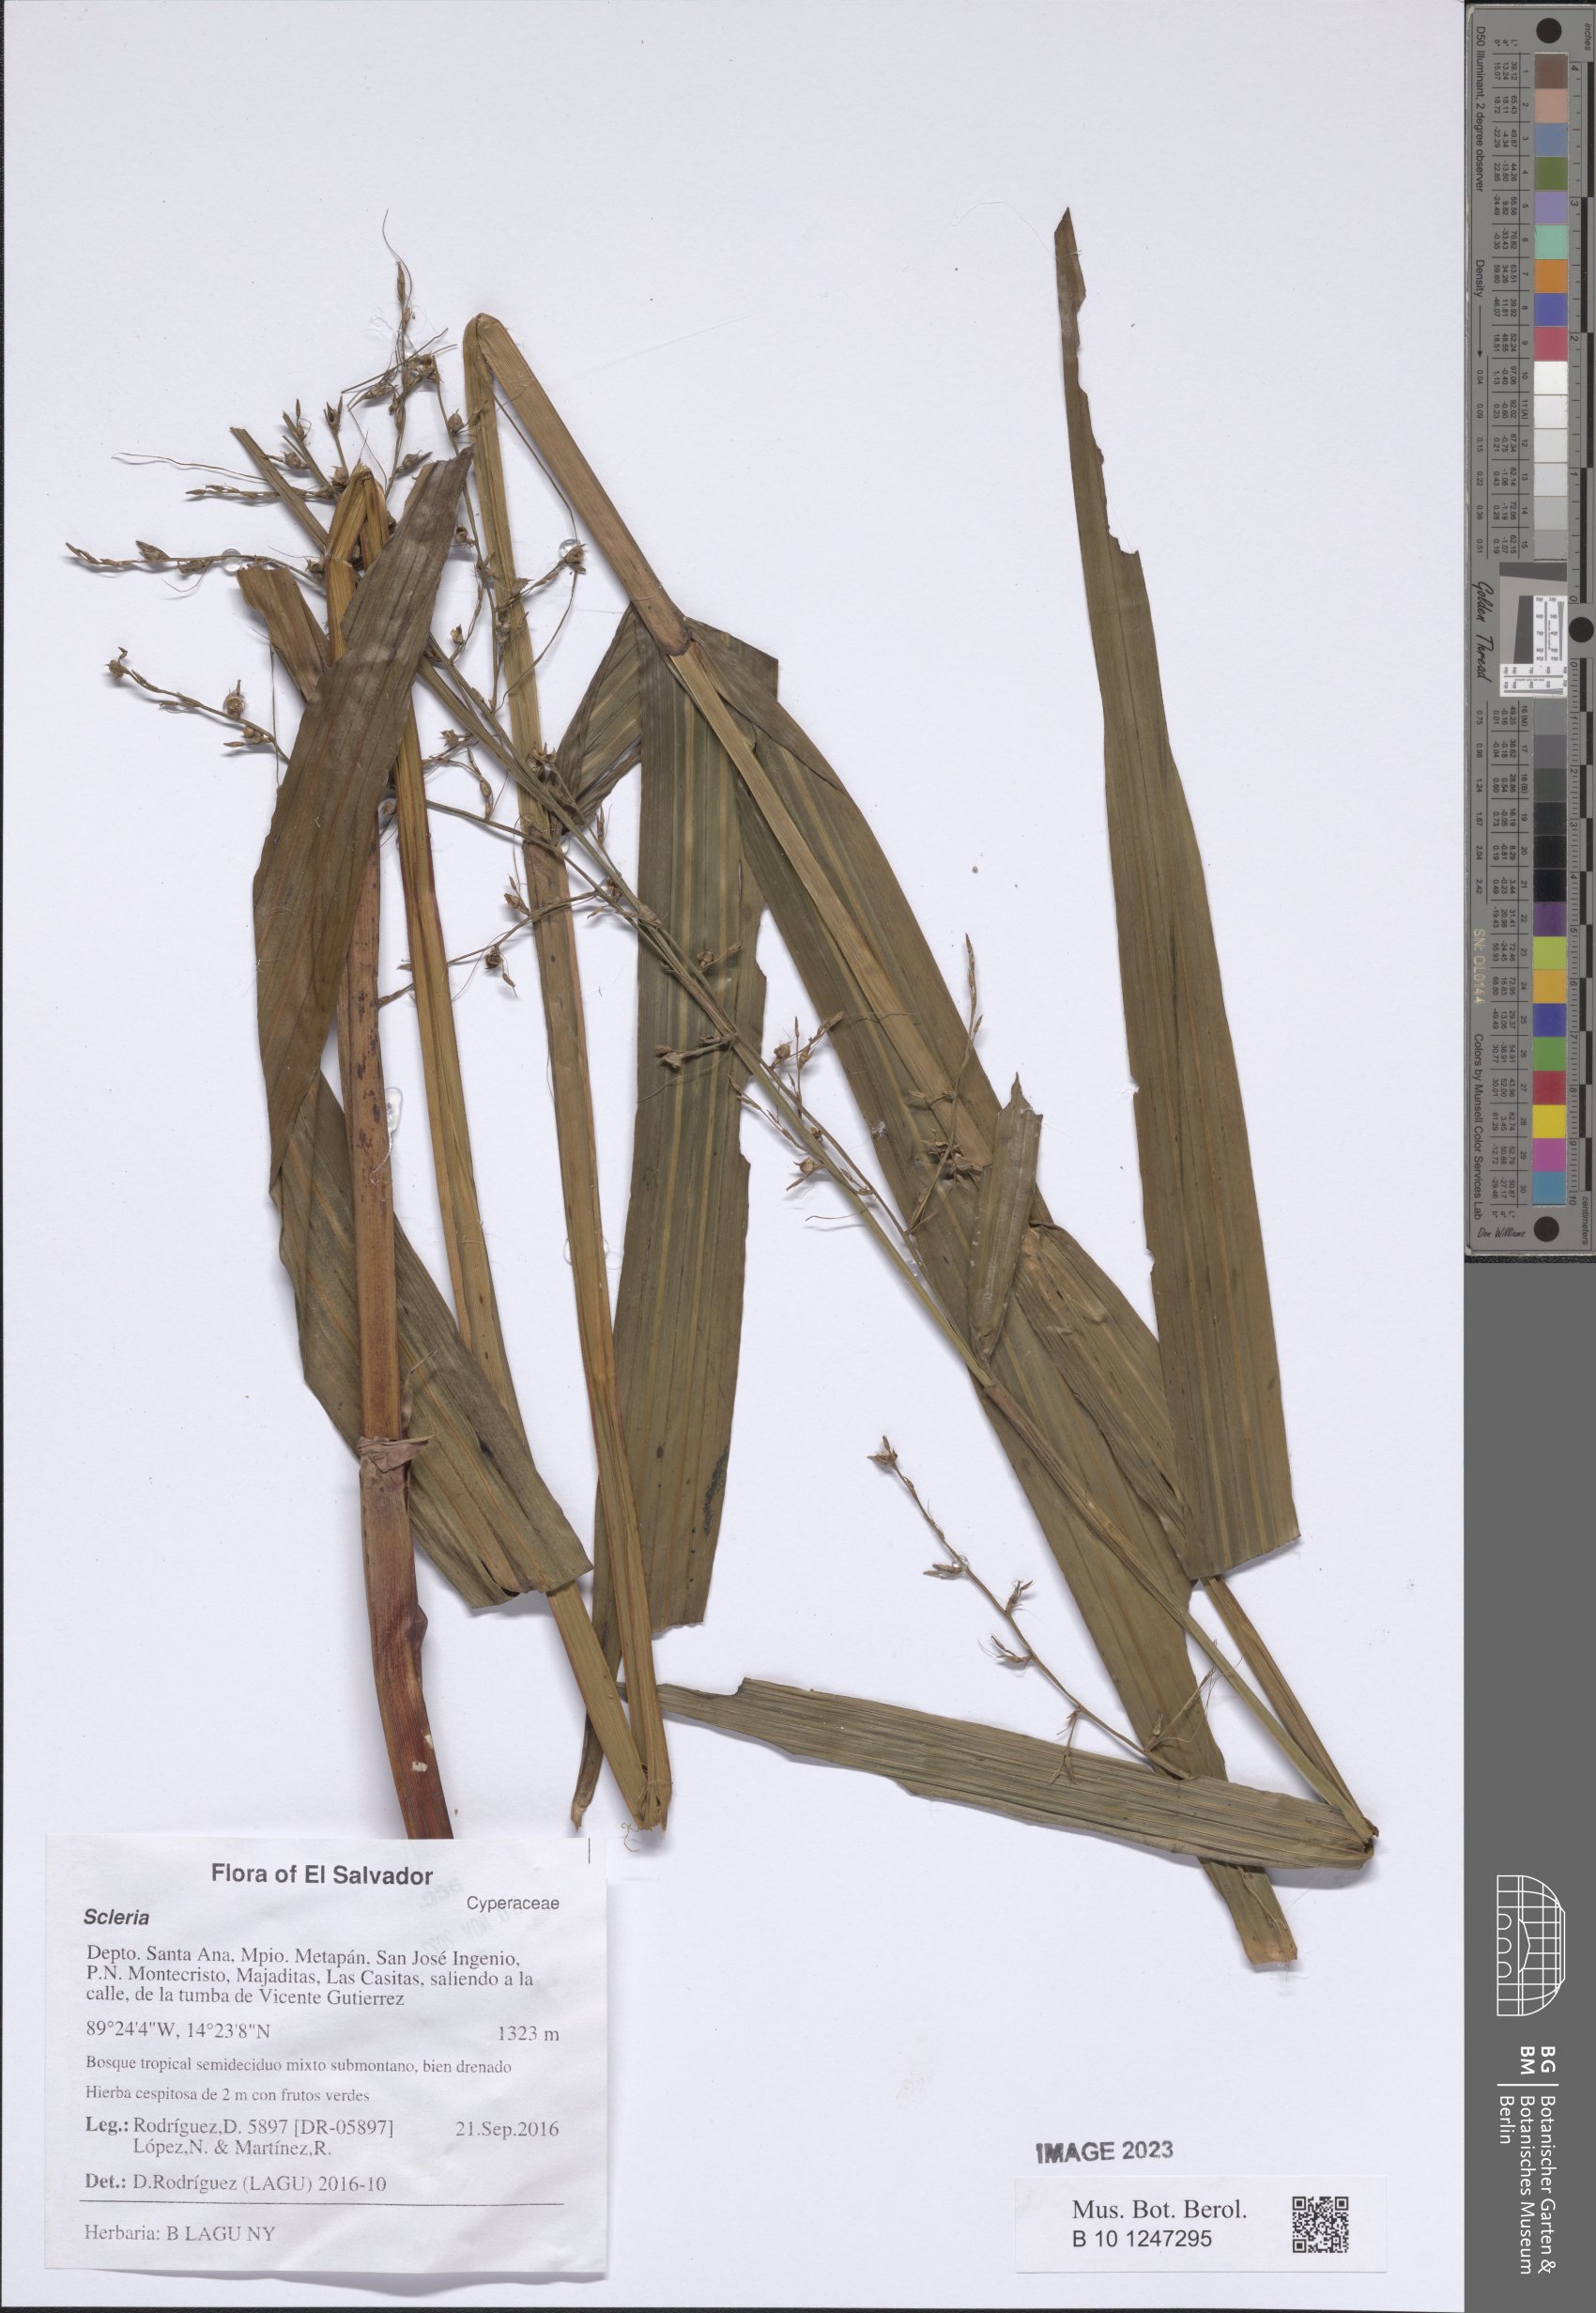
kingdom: Plantae
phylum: Tracheophyta
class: Liliopsida
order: Poales
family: Cyperaceae
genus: Scleria
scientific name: Scleria
